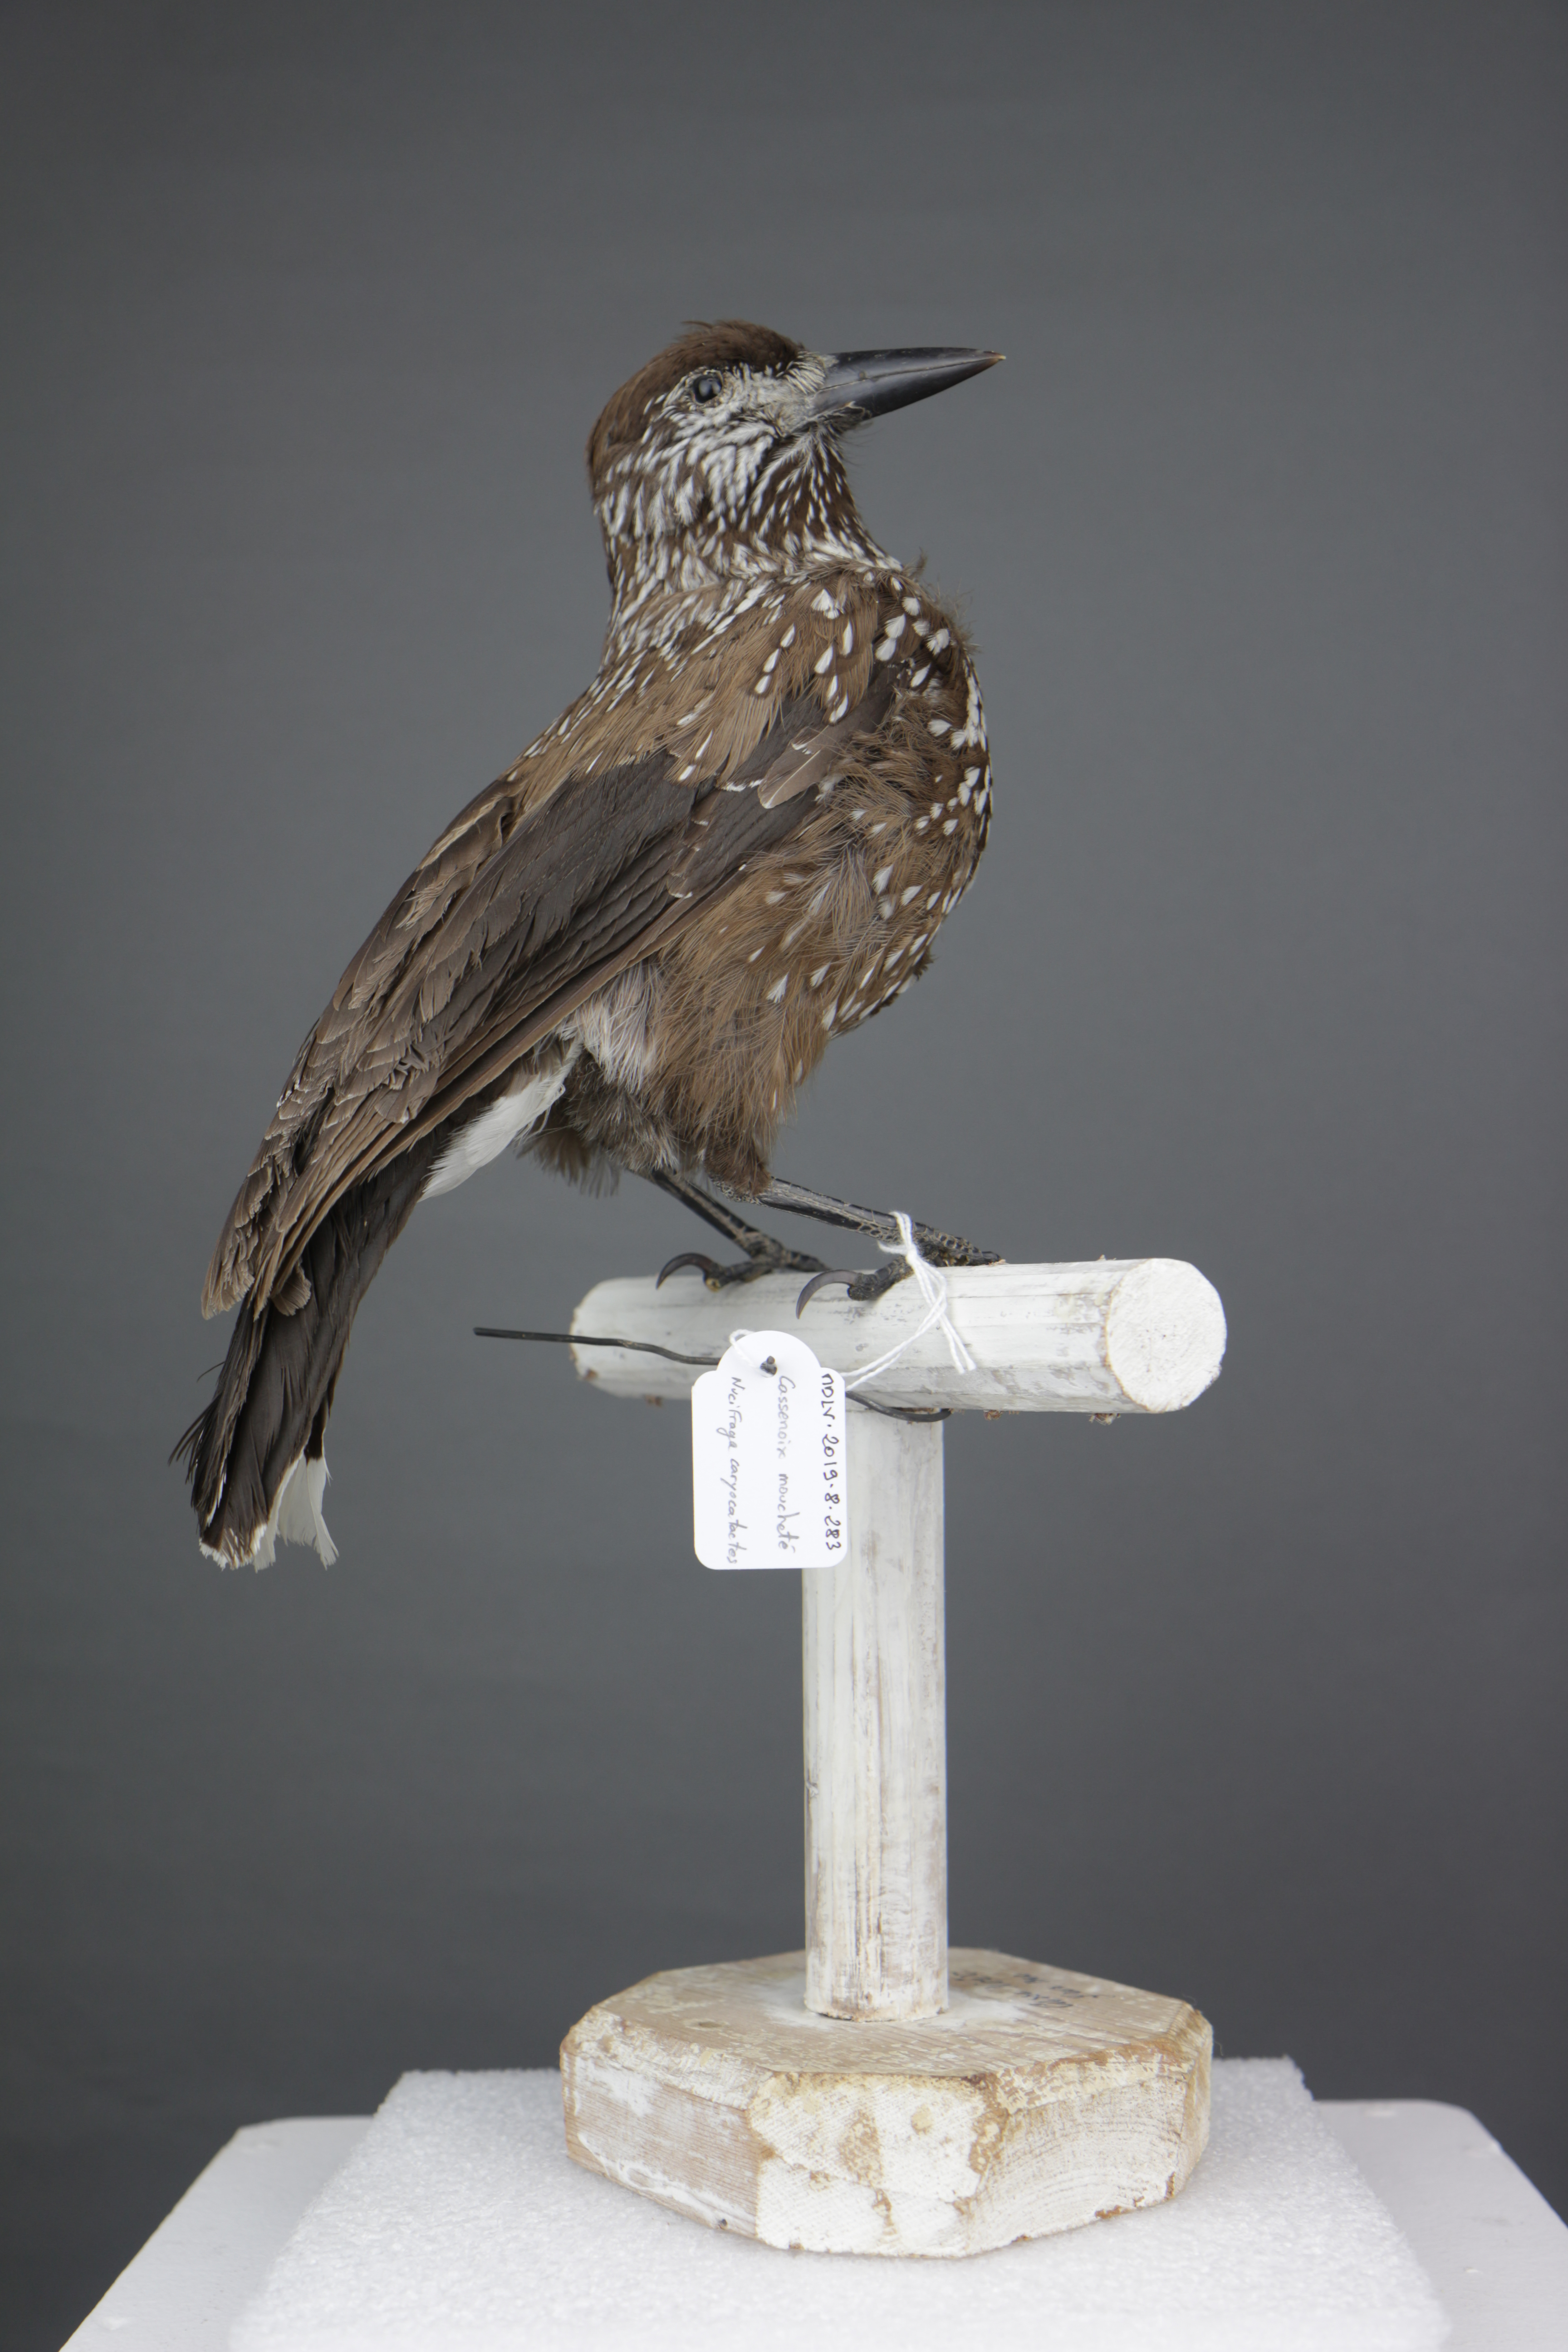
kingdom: Animalia
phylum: Chordata
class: Aves
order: Passeriformes
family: Corvidae
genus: Nucifraga
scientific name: Nucifraga caryocatactes
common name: Spotted nutcracker
